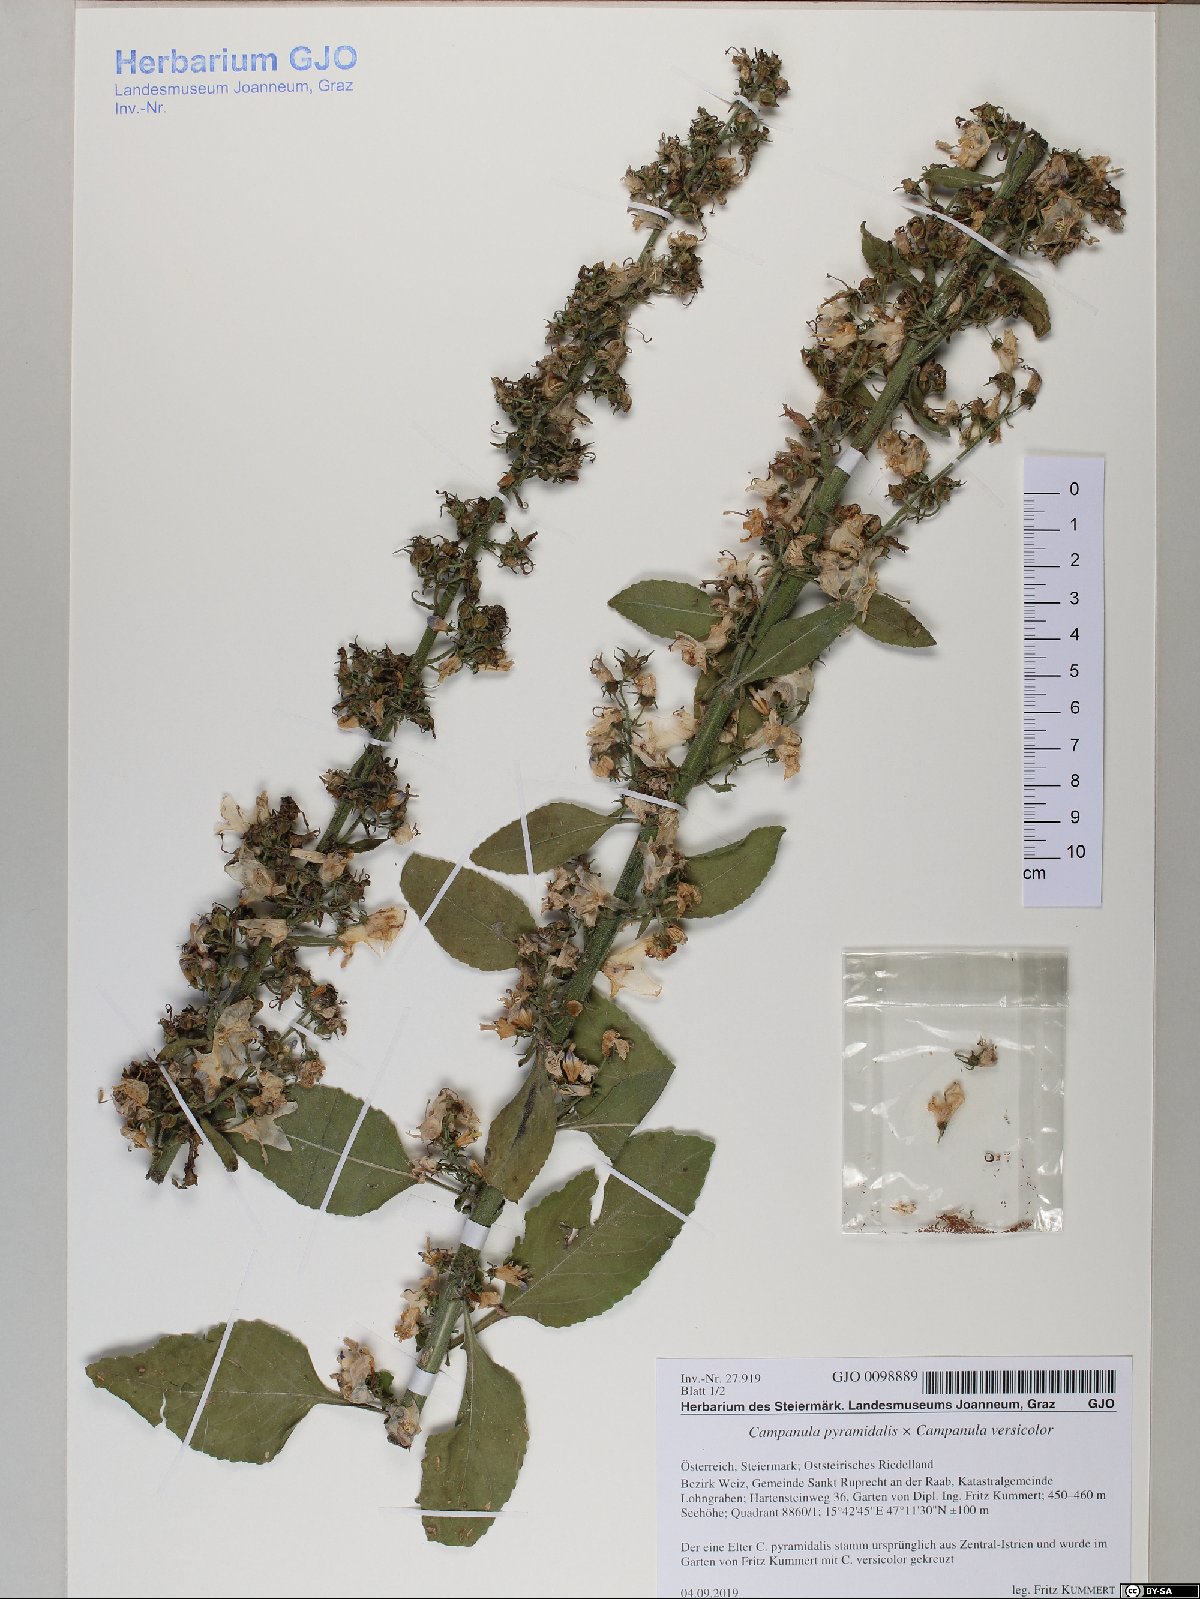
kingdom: Plantae
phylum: Tracheophyta
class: Magnoliopsida
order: Asterales
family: Campanulaceae
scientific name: Campanulaceae
